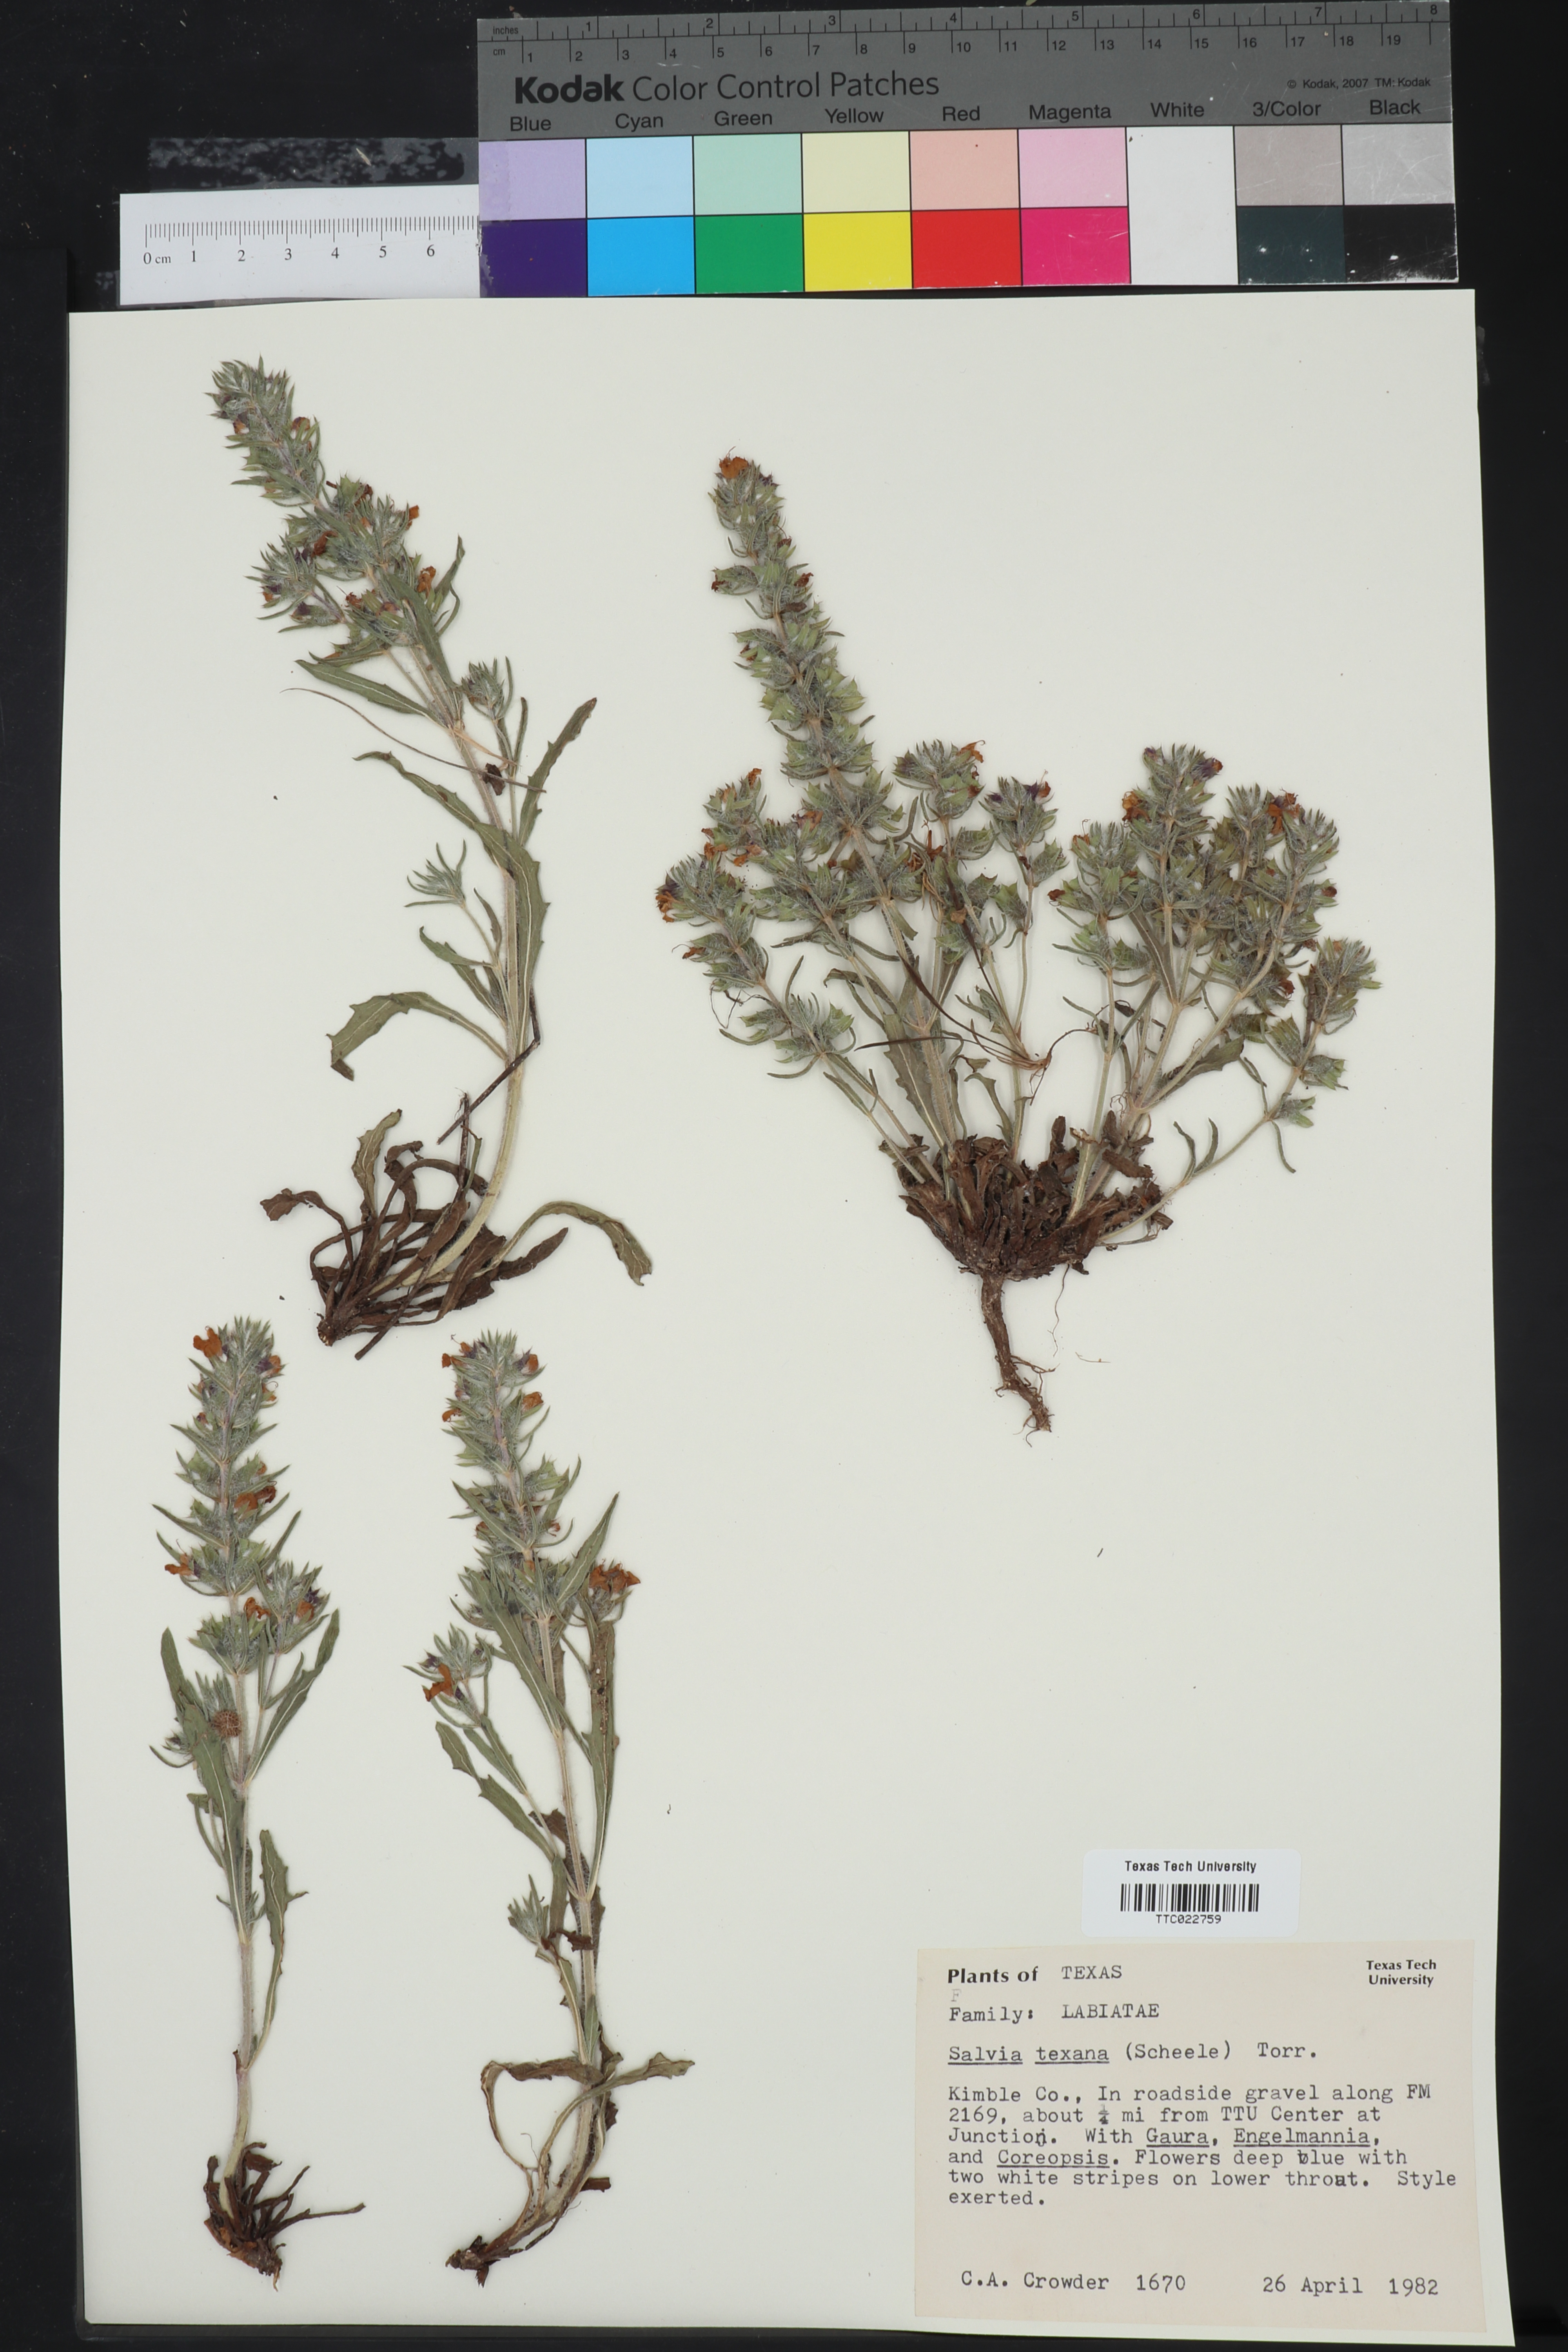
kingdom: Plantae
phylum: Tracheophyta
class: Magnoliopsida
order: Lamiales
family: Lamiaceae
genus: Salvia
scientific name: Salvia texana
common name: Texas sage
